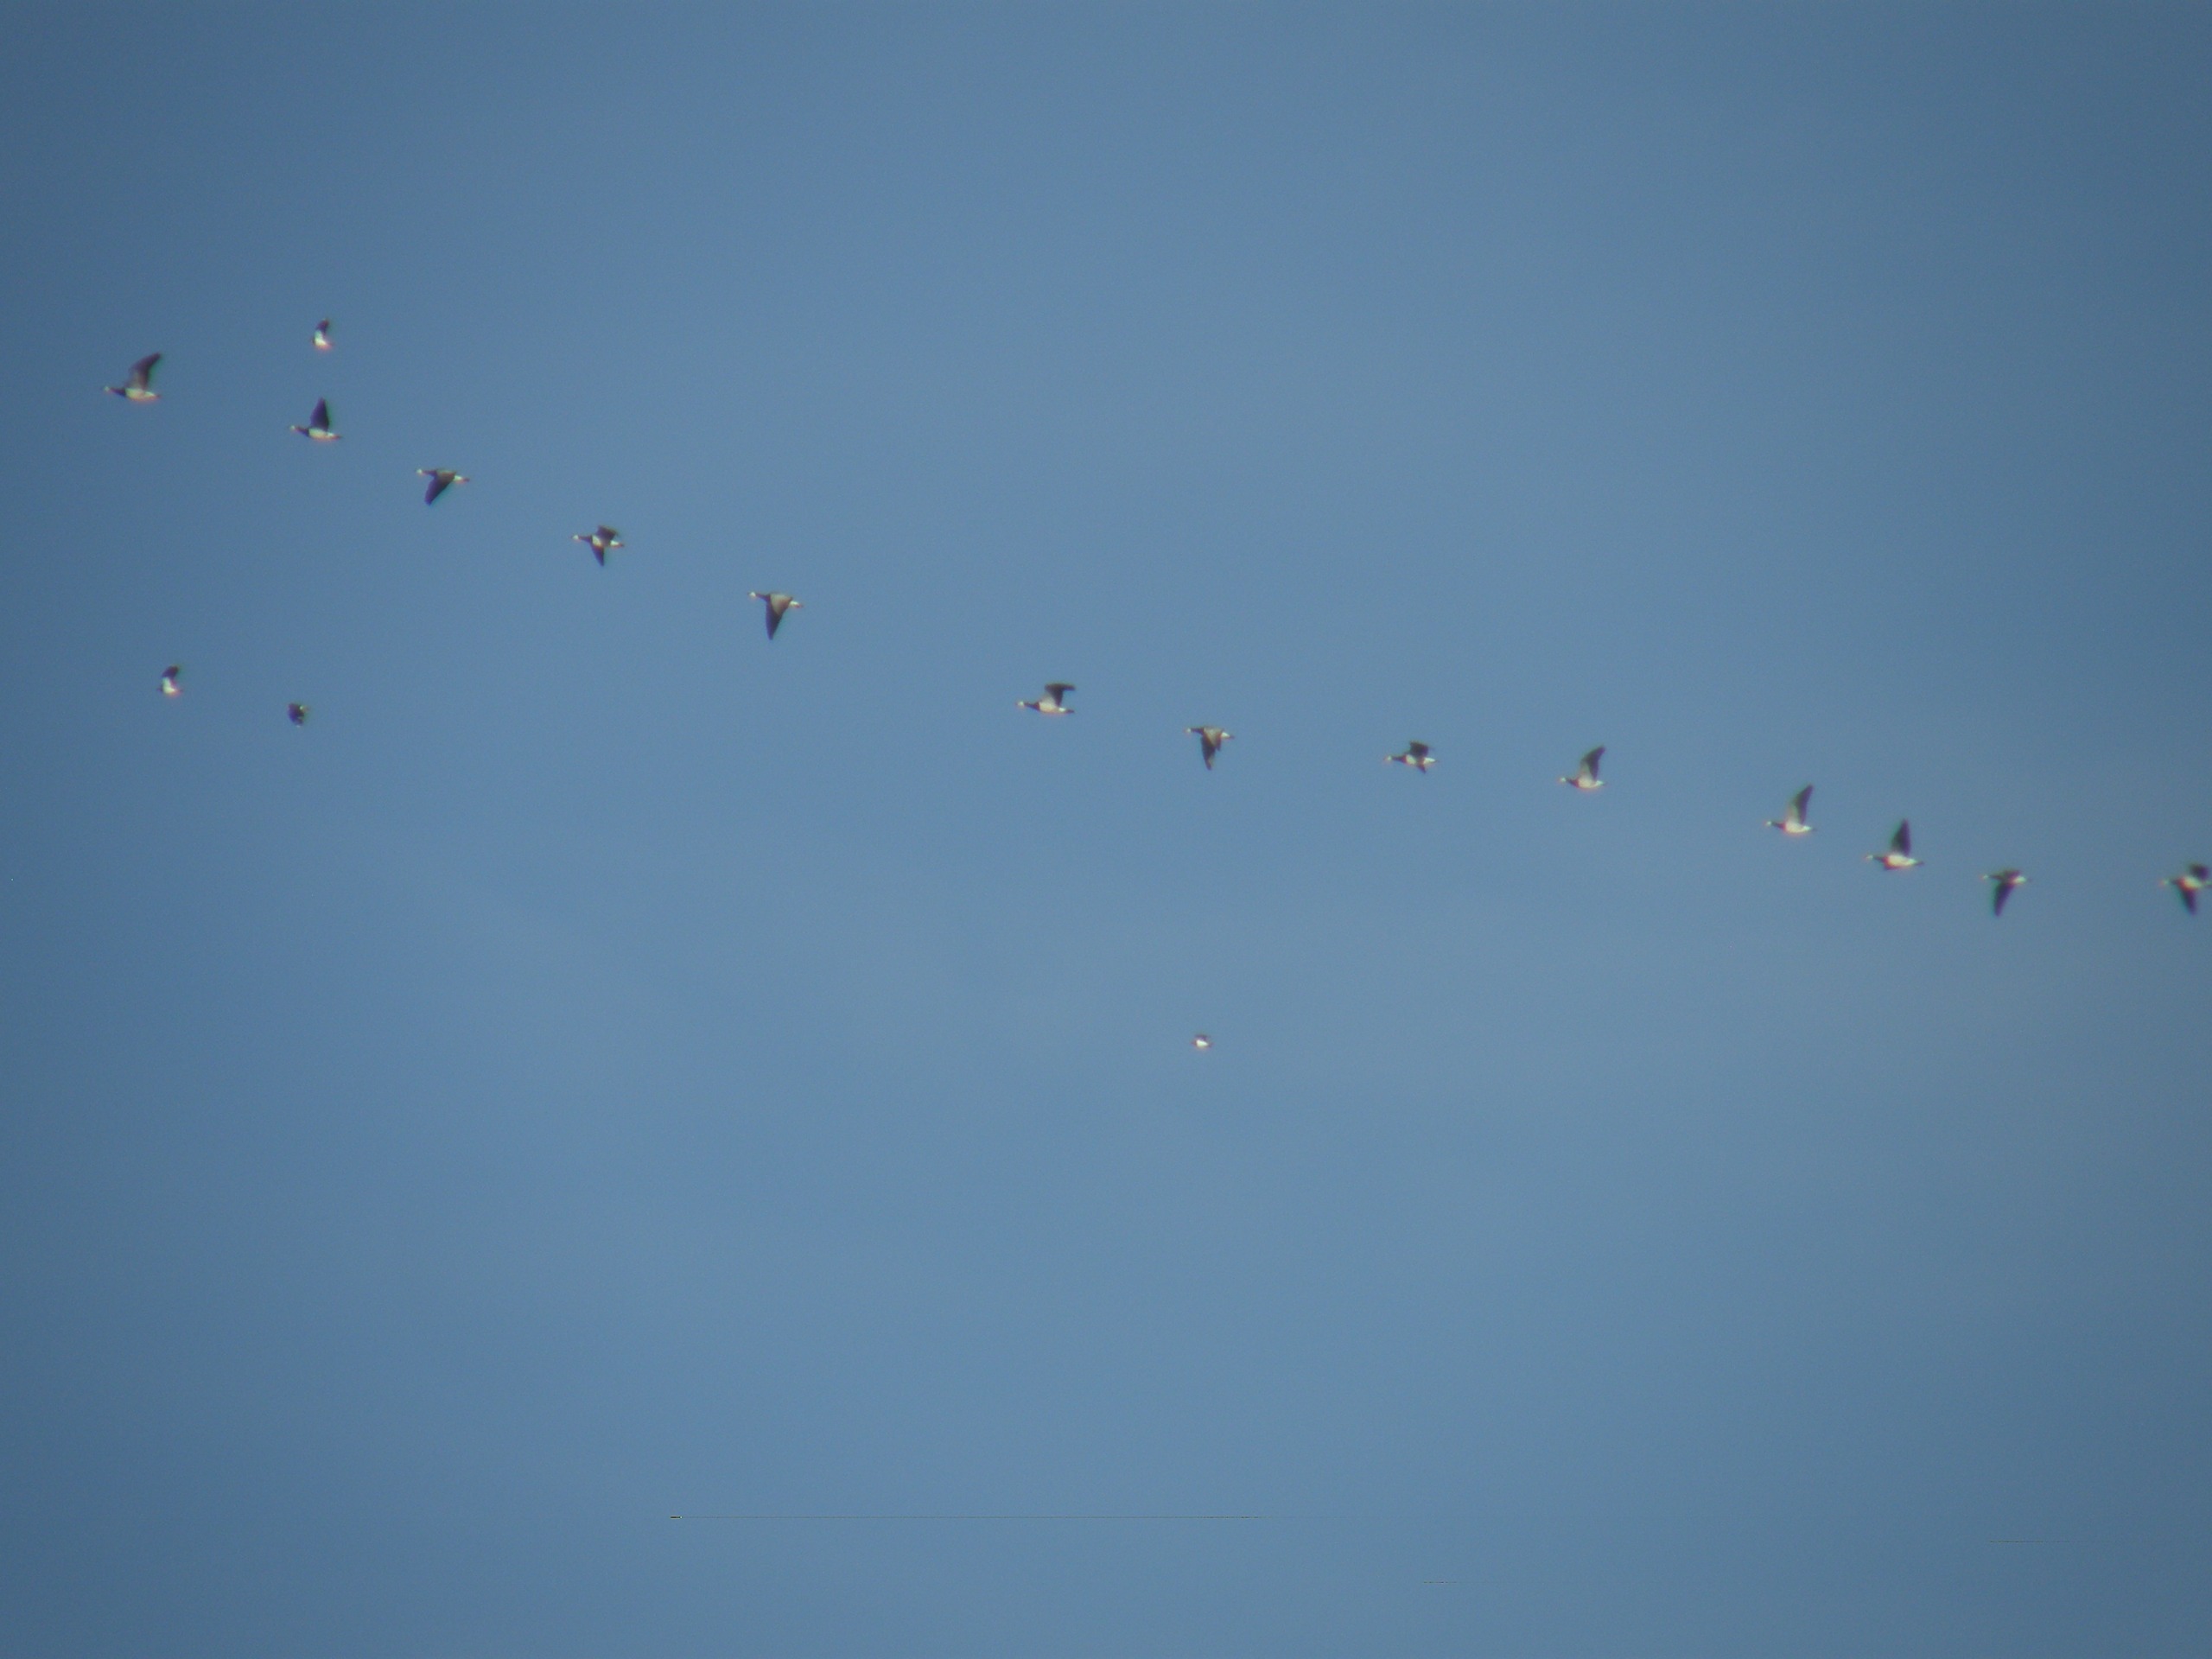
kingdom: Animalia
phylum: Chordata
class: Aves
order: Anseriformes
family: Anatidae
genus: Branta
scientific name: Branta leucopsis
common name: Bramgås
